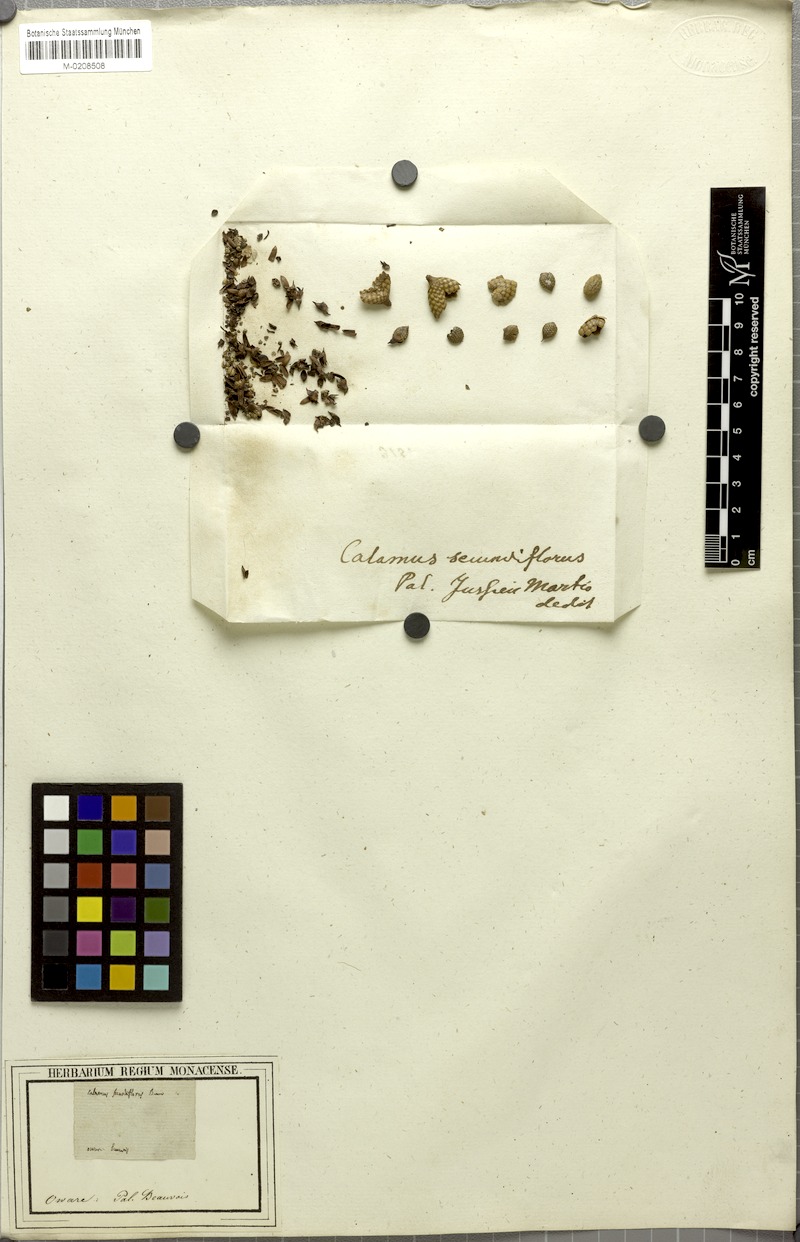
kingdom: Plantae
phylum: Tracheophyta
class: Liliopsida
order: Arecales
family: Arecaceae
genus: Laccosperma
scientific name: Laccosperma secundiflorum
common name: Rattan
